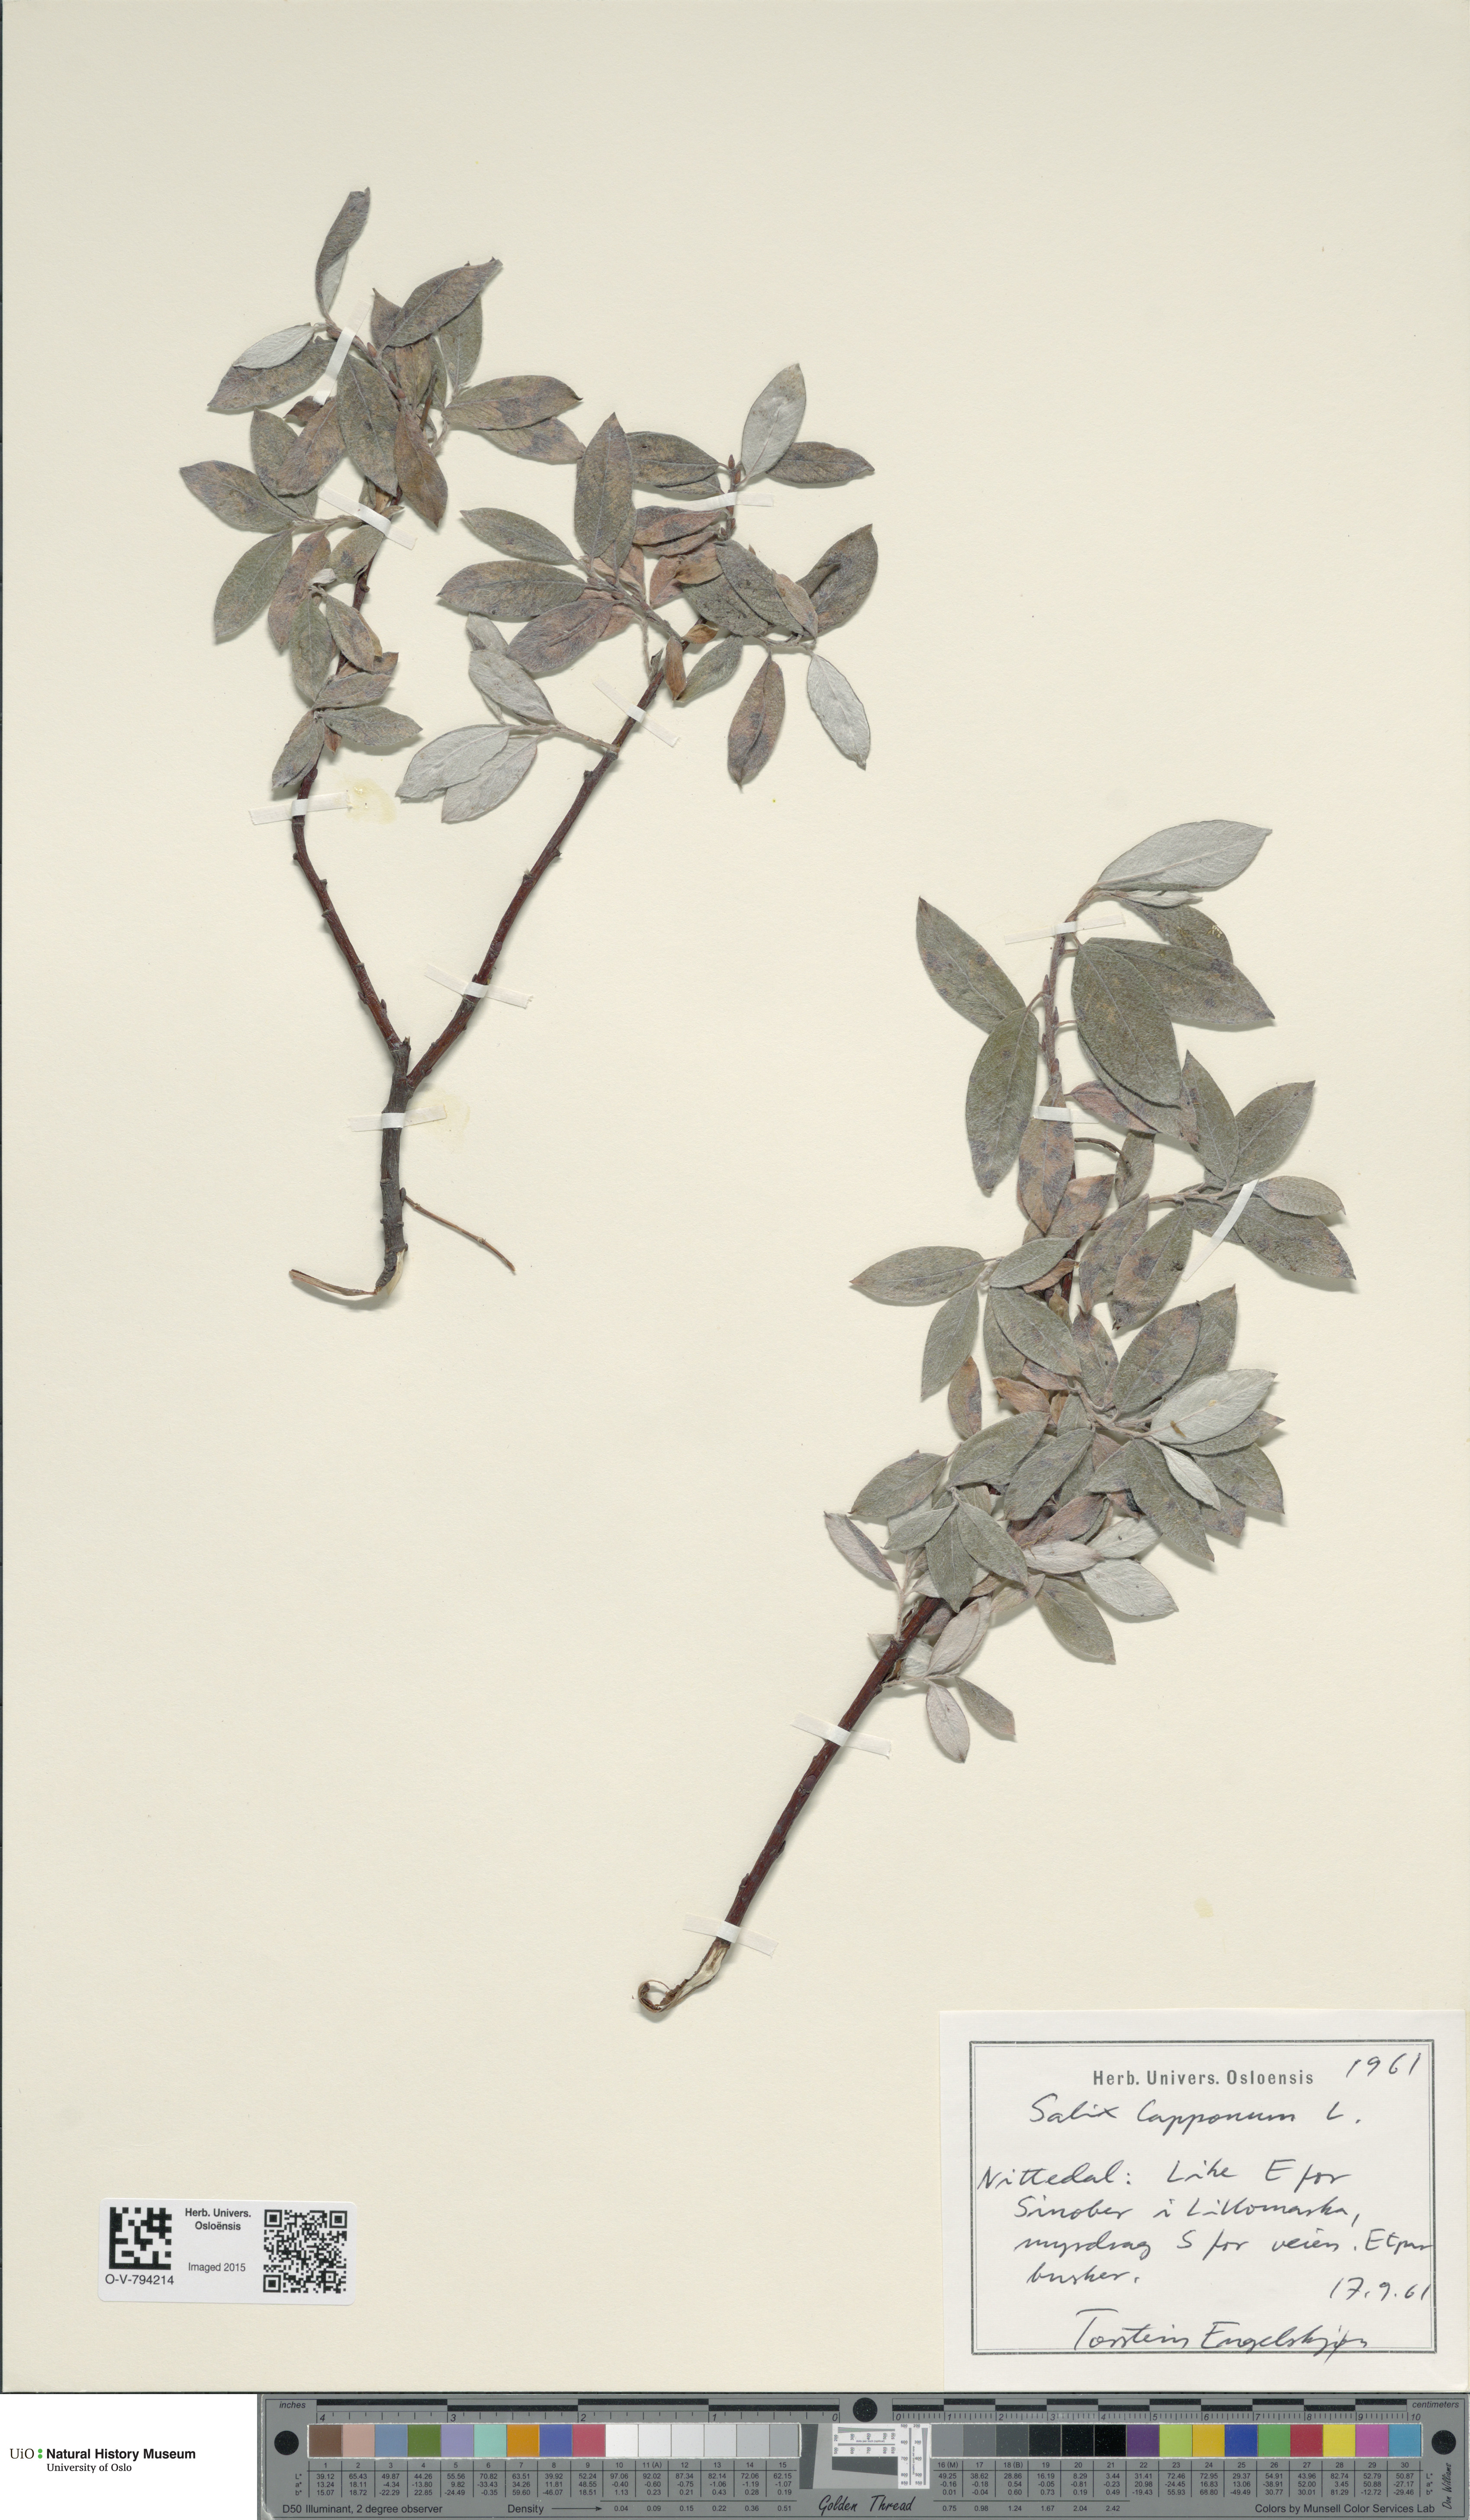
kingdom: Plantae
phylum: Tracheophyta
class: Magnoliopsida
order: Malpighiales
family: Salicaceae
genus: Salix
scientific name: Salix lapponum
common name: Downy willow
